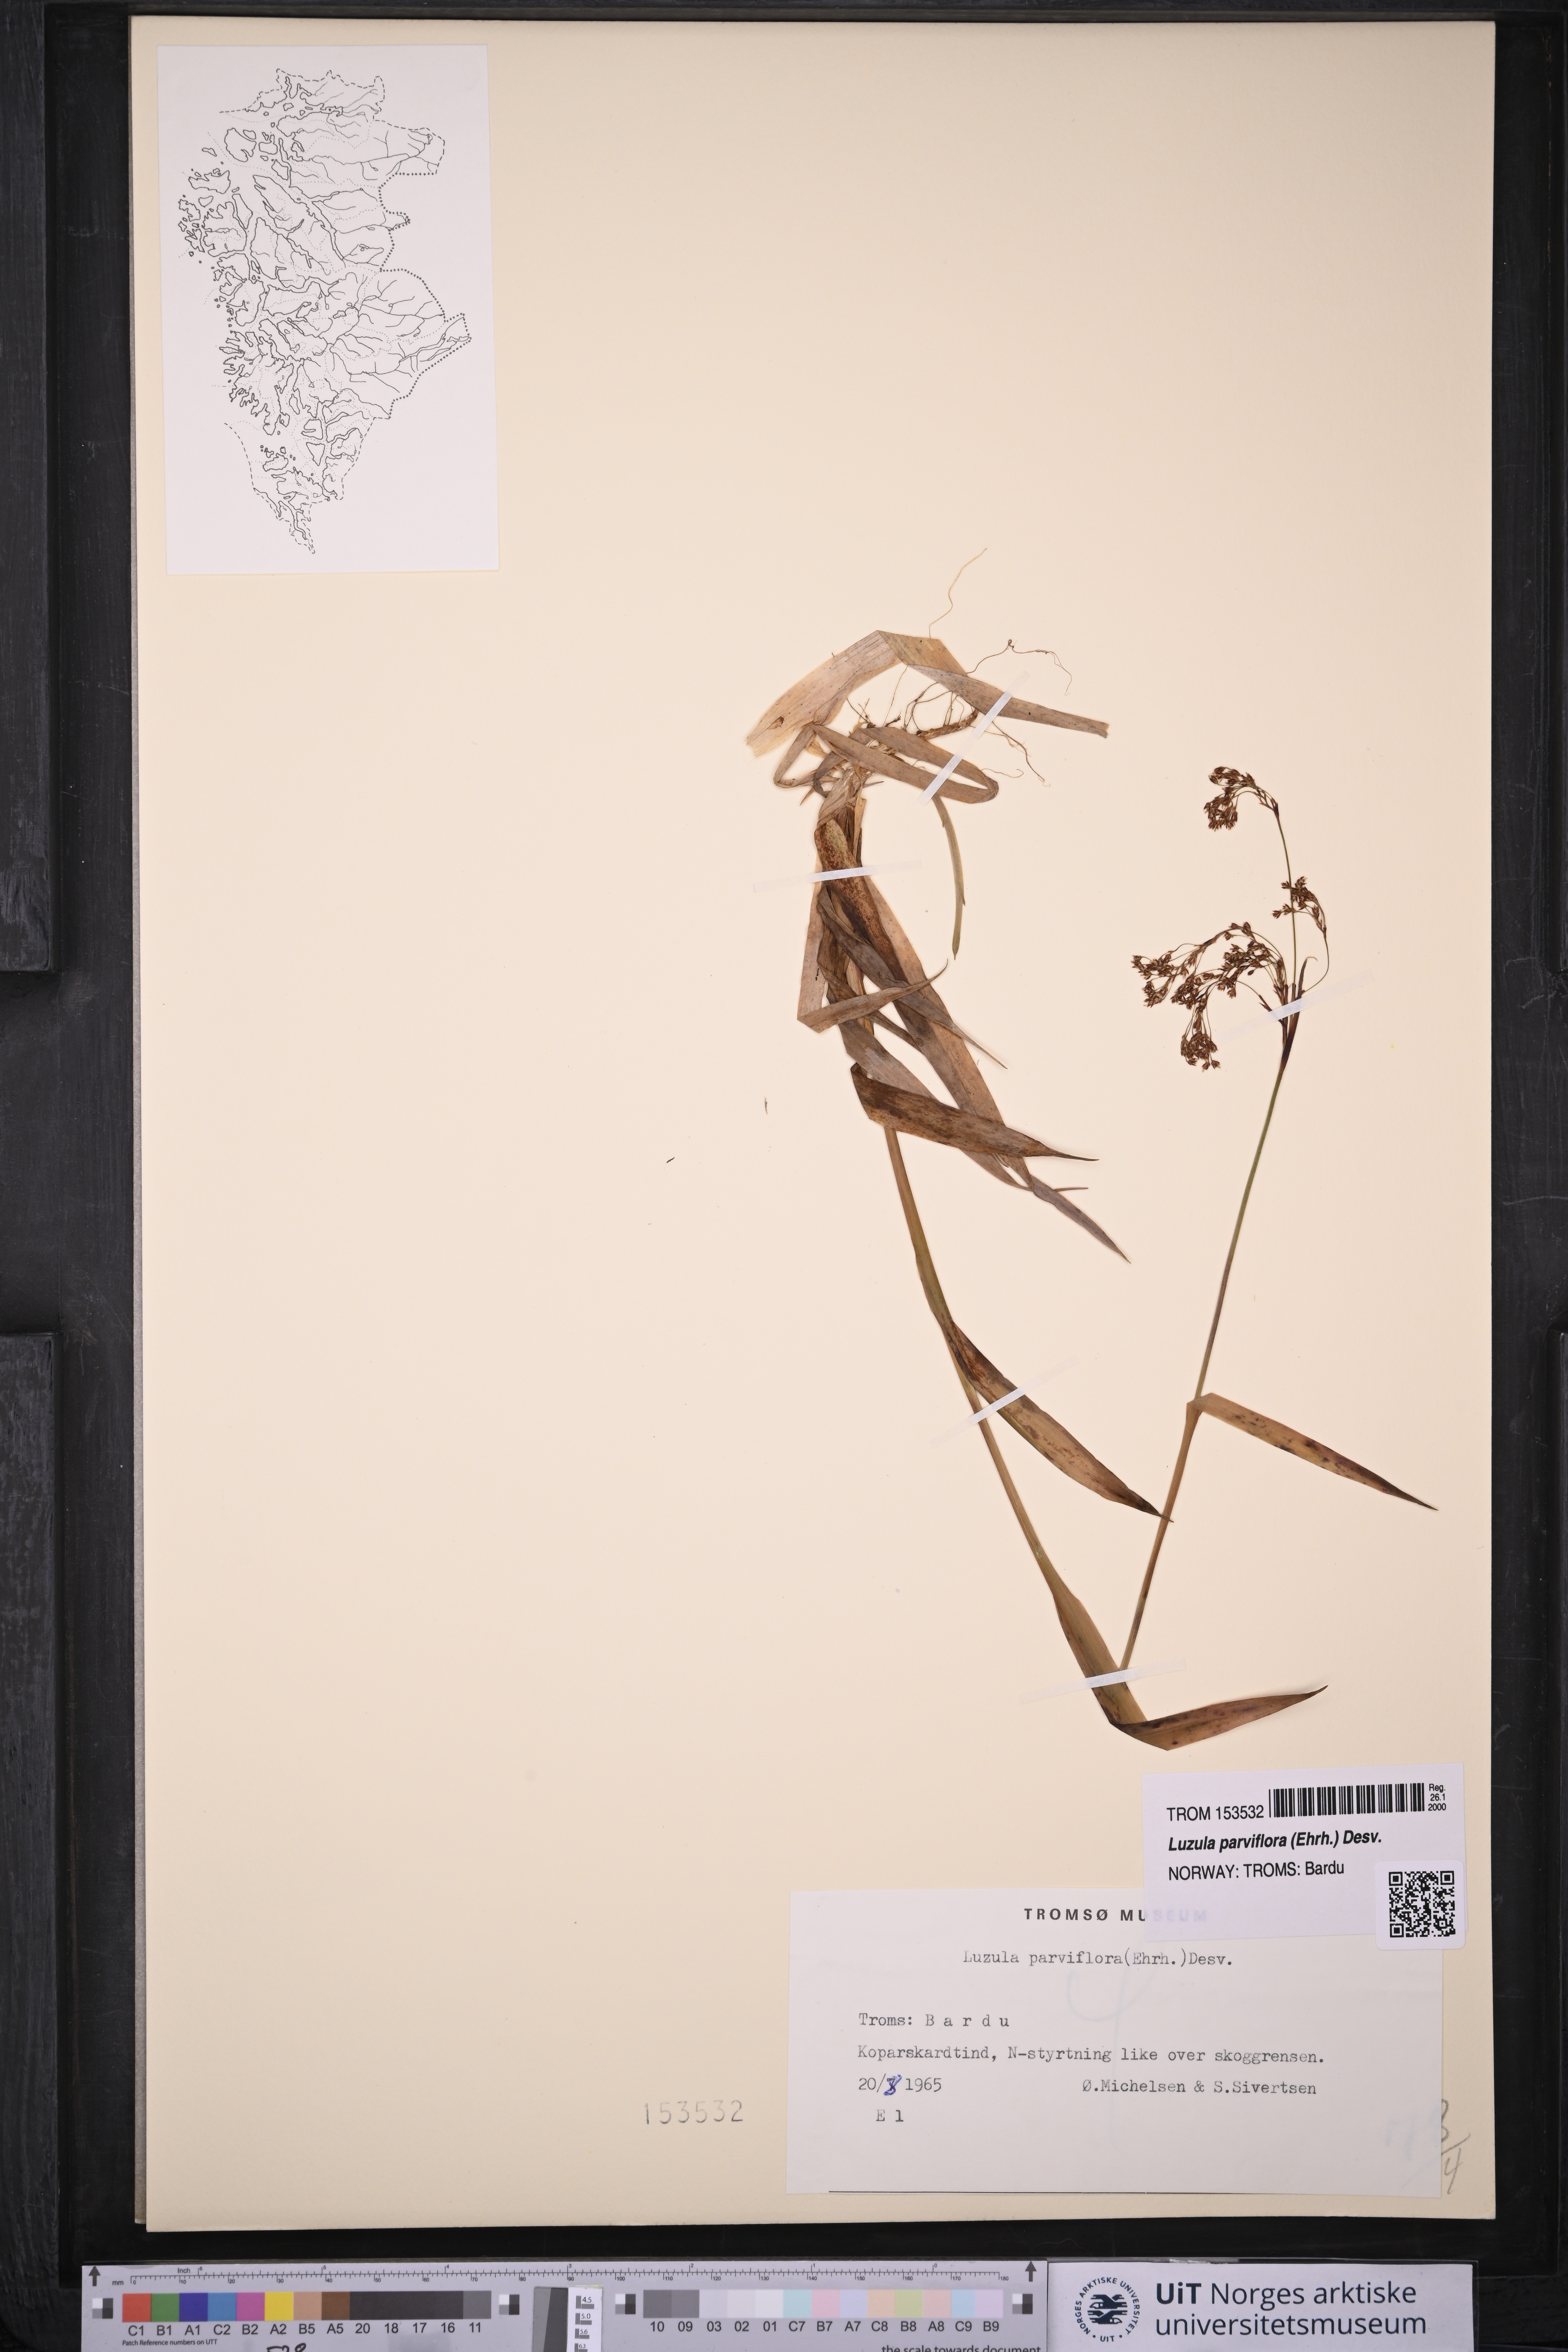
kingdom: Plantae
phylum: Tracheophyta
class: Liliopsida
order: Poales
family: Juncaceae
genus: Luzula
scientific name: Luzula parviflora
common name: Millet woodrush
